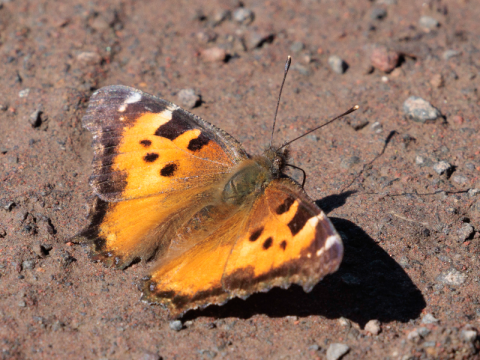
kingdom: Animalia
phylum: Arthropoda
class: Insecta
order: Lepidoptera
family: Nymphalidae
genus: Nymphalis
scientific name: Nymphalis californica
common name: California Tortoiseshell
